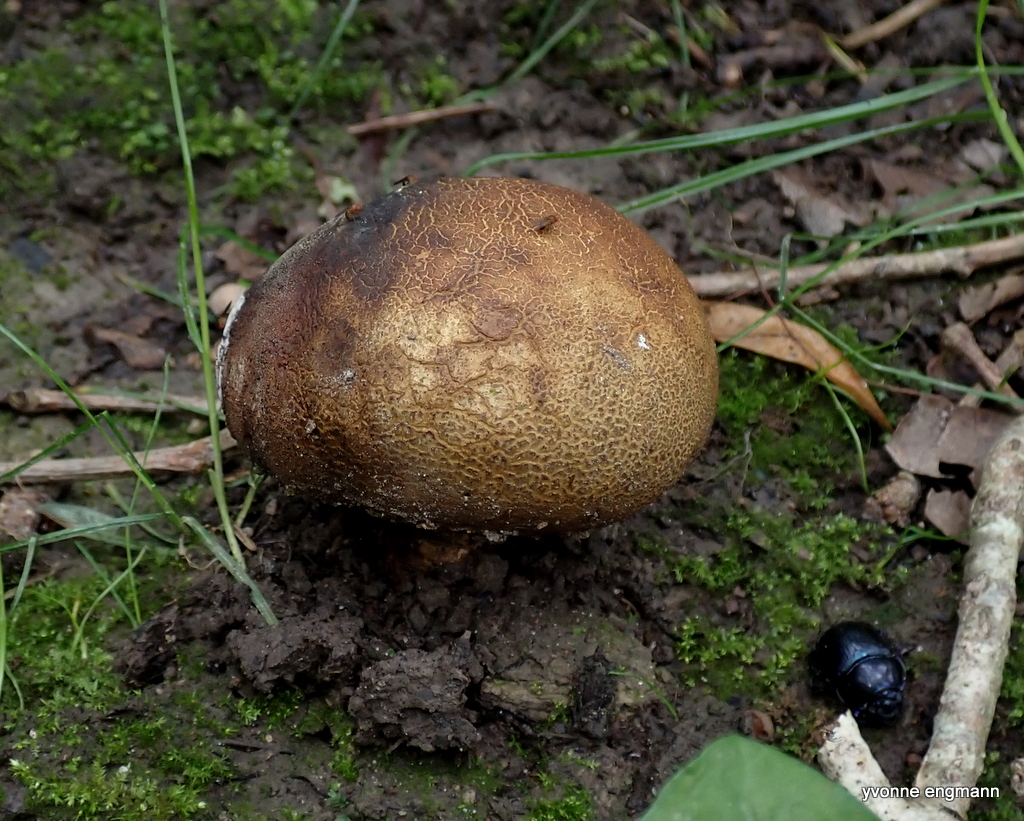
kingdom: Fungi
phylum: Basidiomycota
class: Agaricomycetes
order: Boletales
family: Sclerodermataceae
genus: Scleroderma
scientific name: Scleroderma verrucosum
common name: stilket bruskbold
